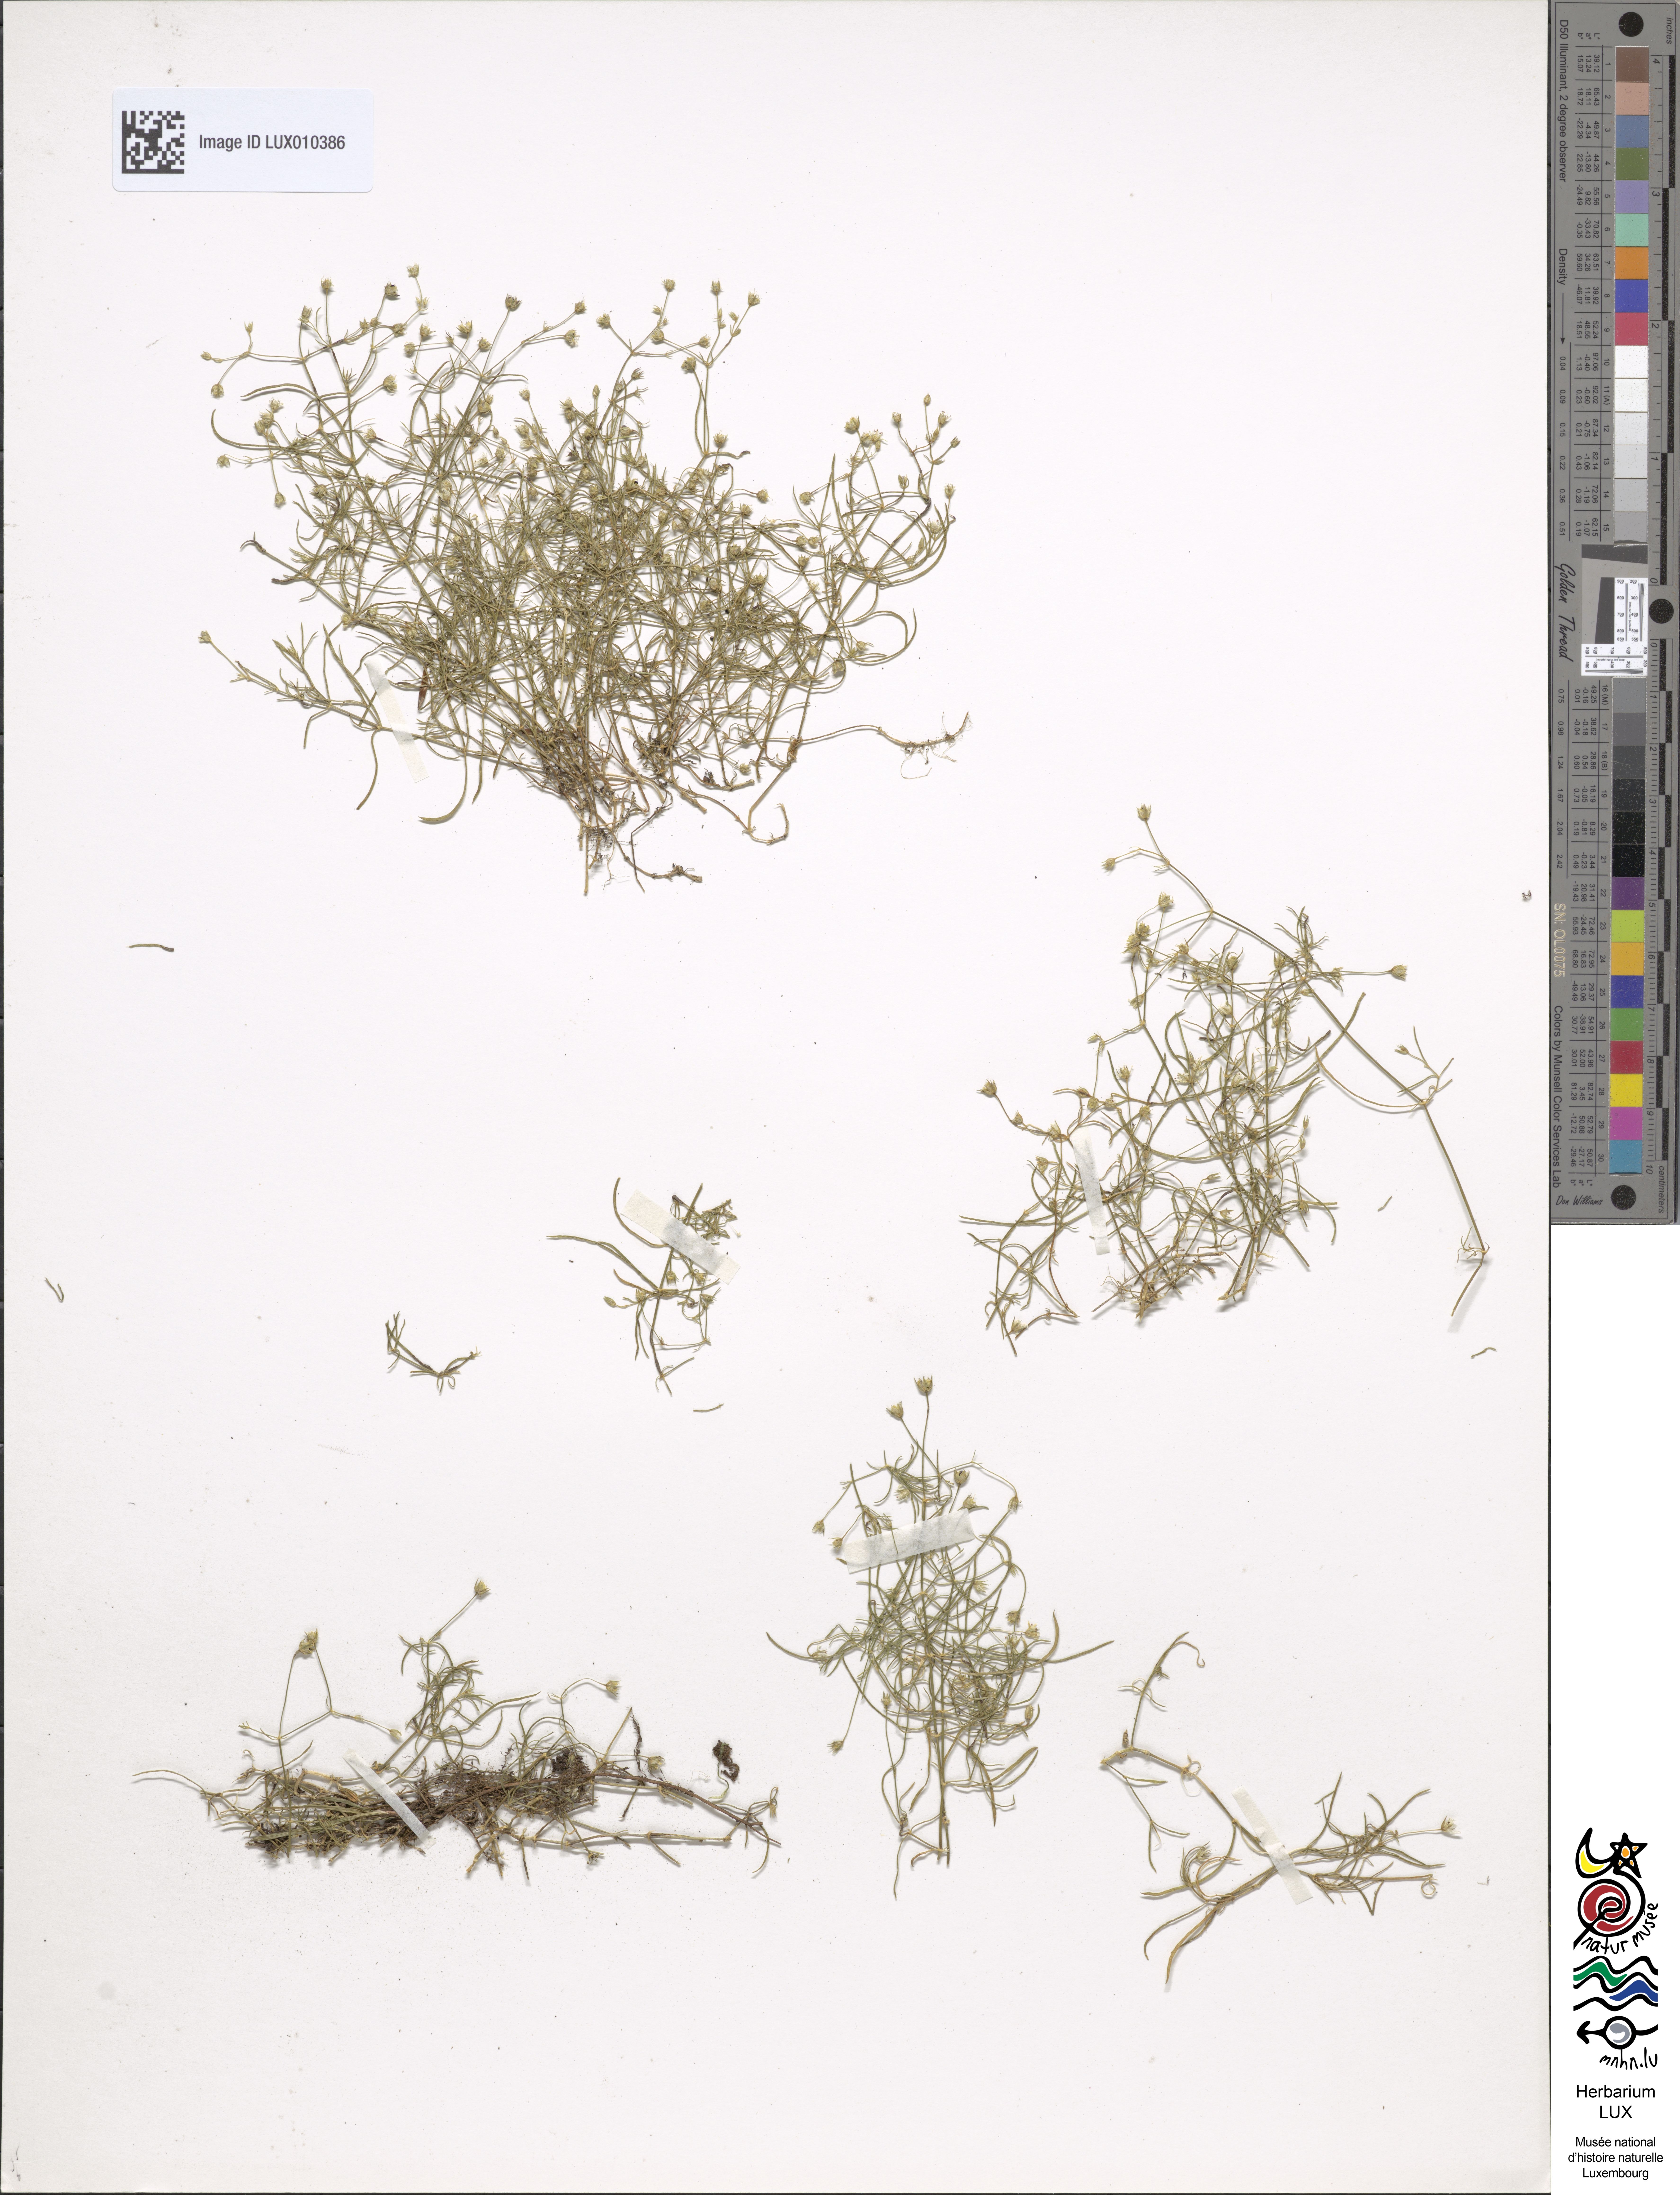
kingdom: Plantae
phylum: Tracheophyta
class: Magnoliopsida
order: Caryophyllales
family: Caryophyllaceae
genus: Moehringia
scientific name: Moehringia muscosa
